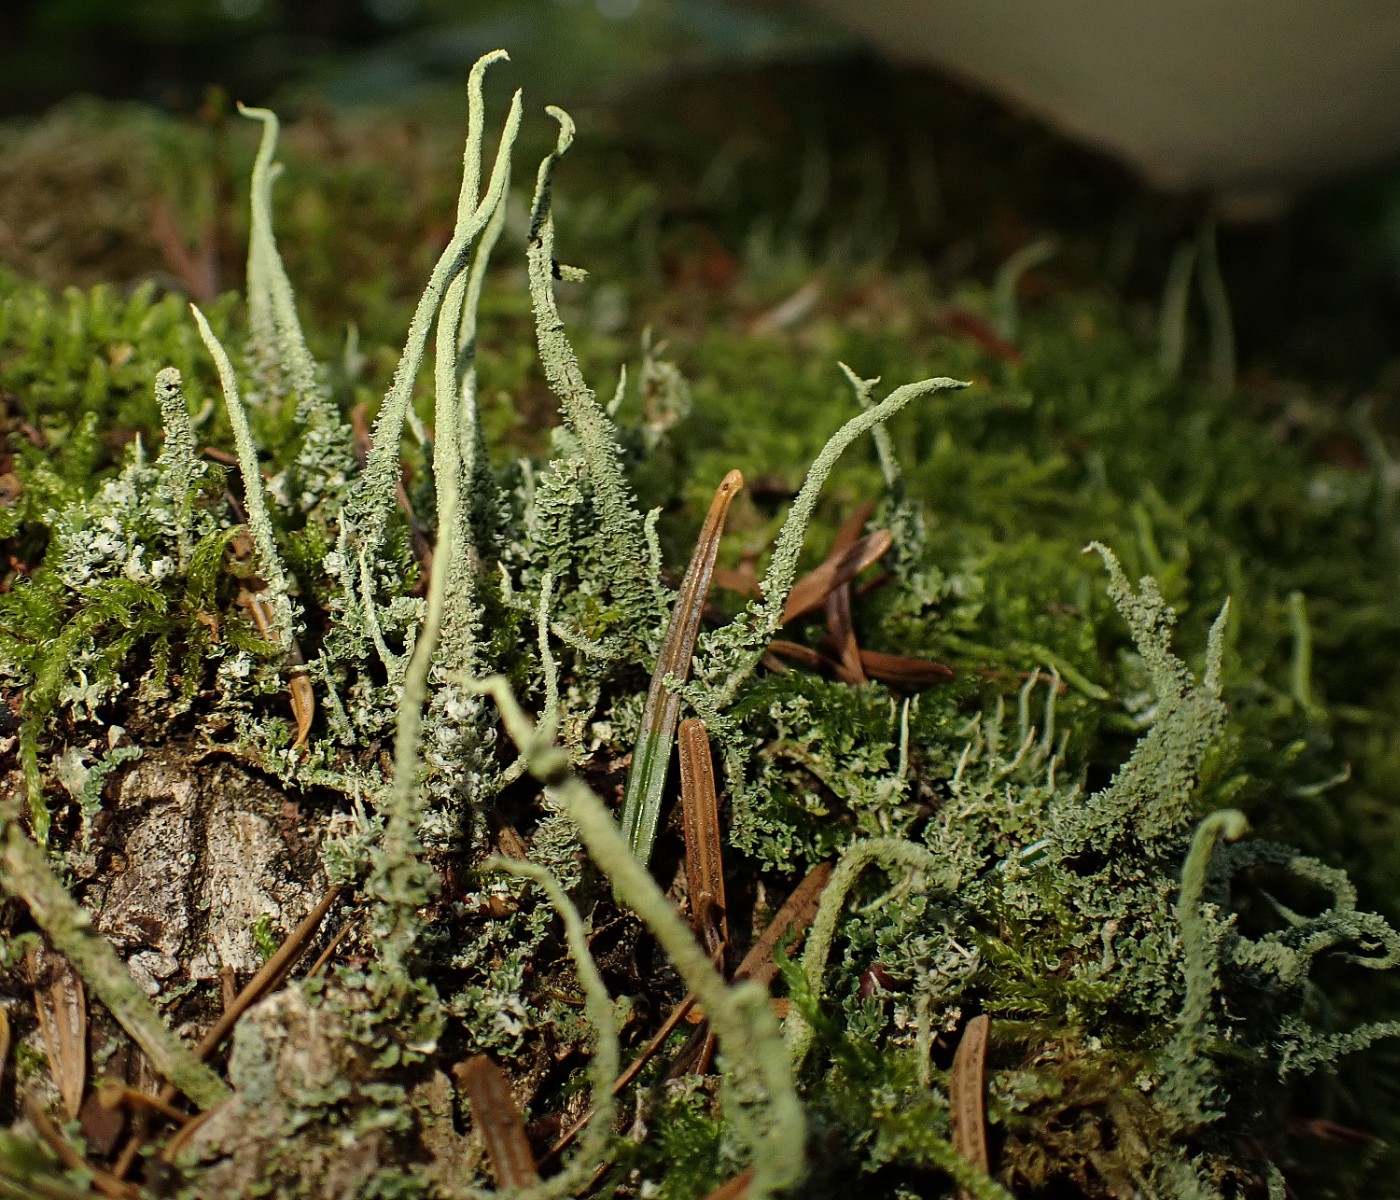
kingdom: Fungi
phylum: Ascomycota
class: Lecanoromycetes
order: Lecanorales
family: Cladoniaceae
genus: Cladonia
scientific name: Cladonia glauca
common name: grågrøn bægerlav
